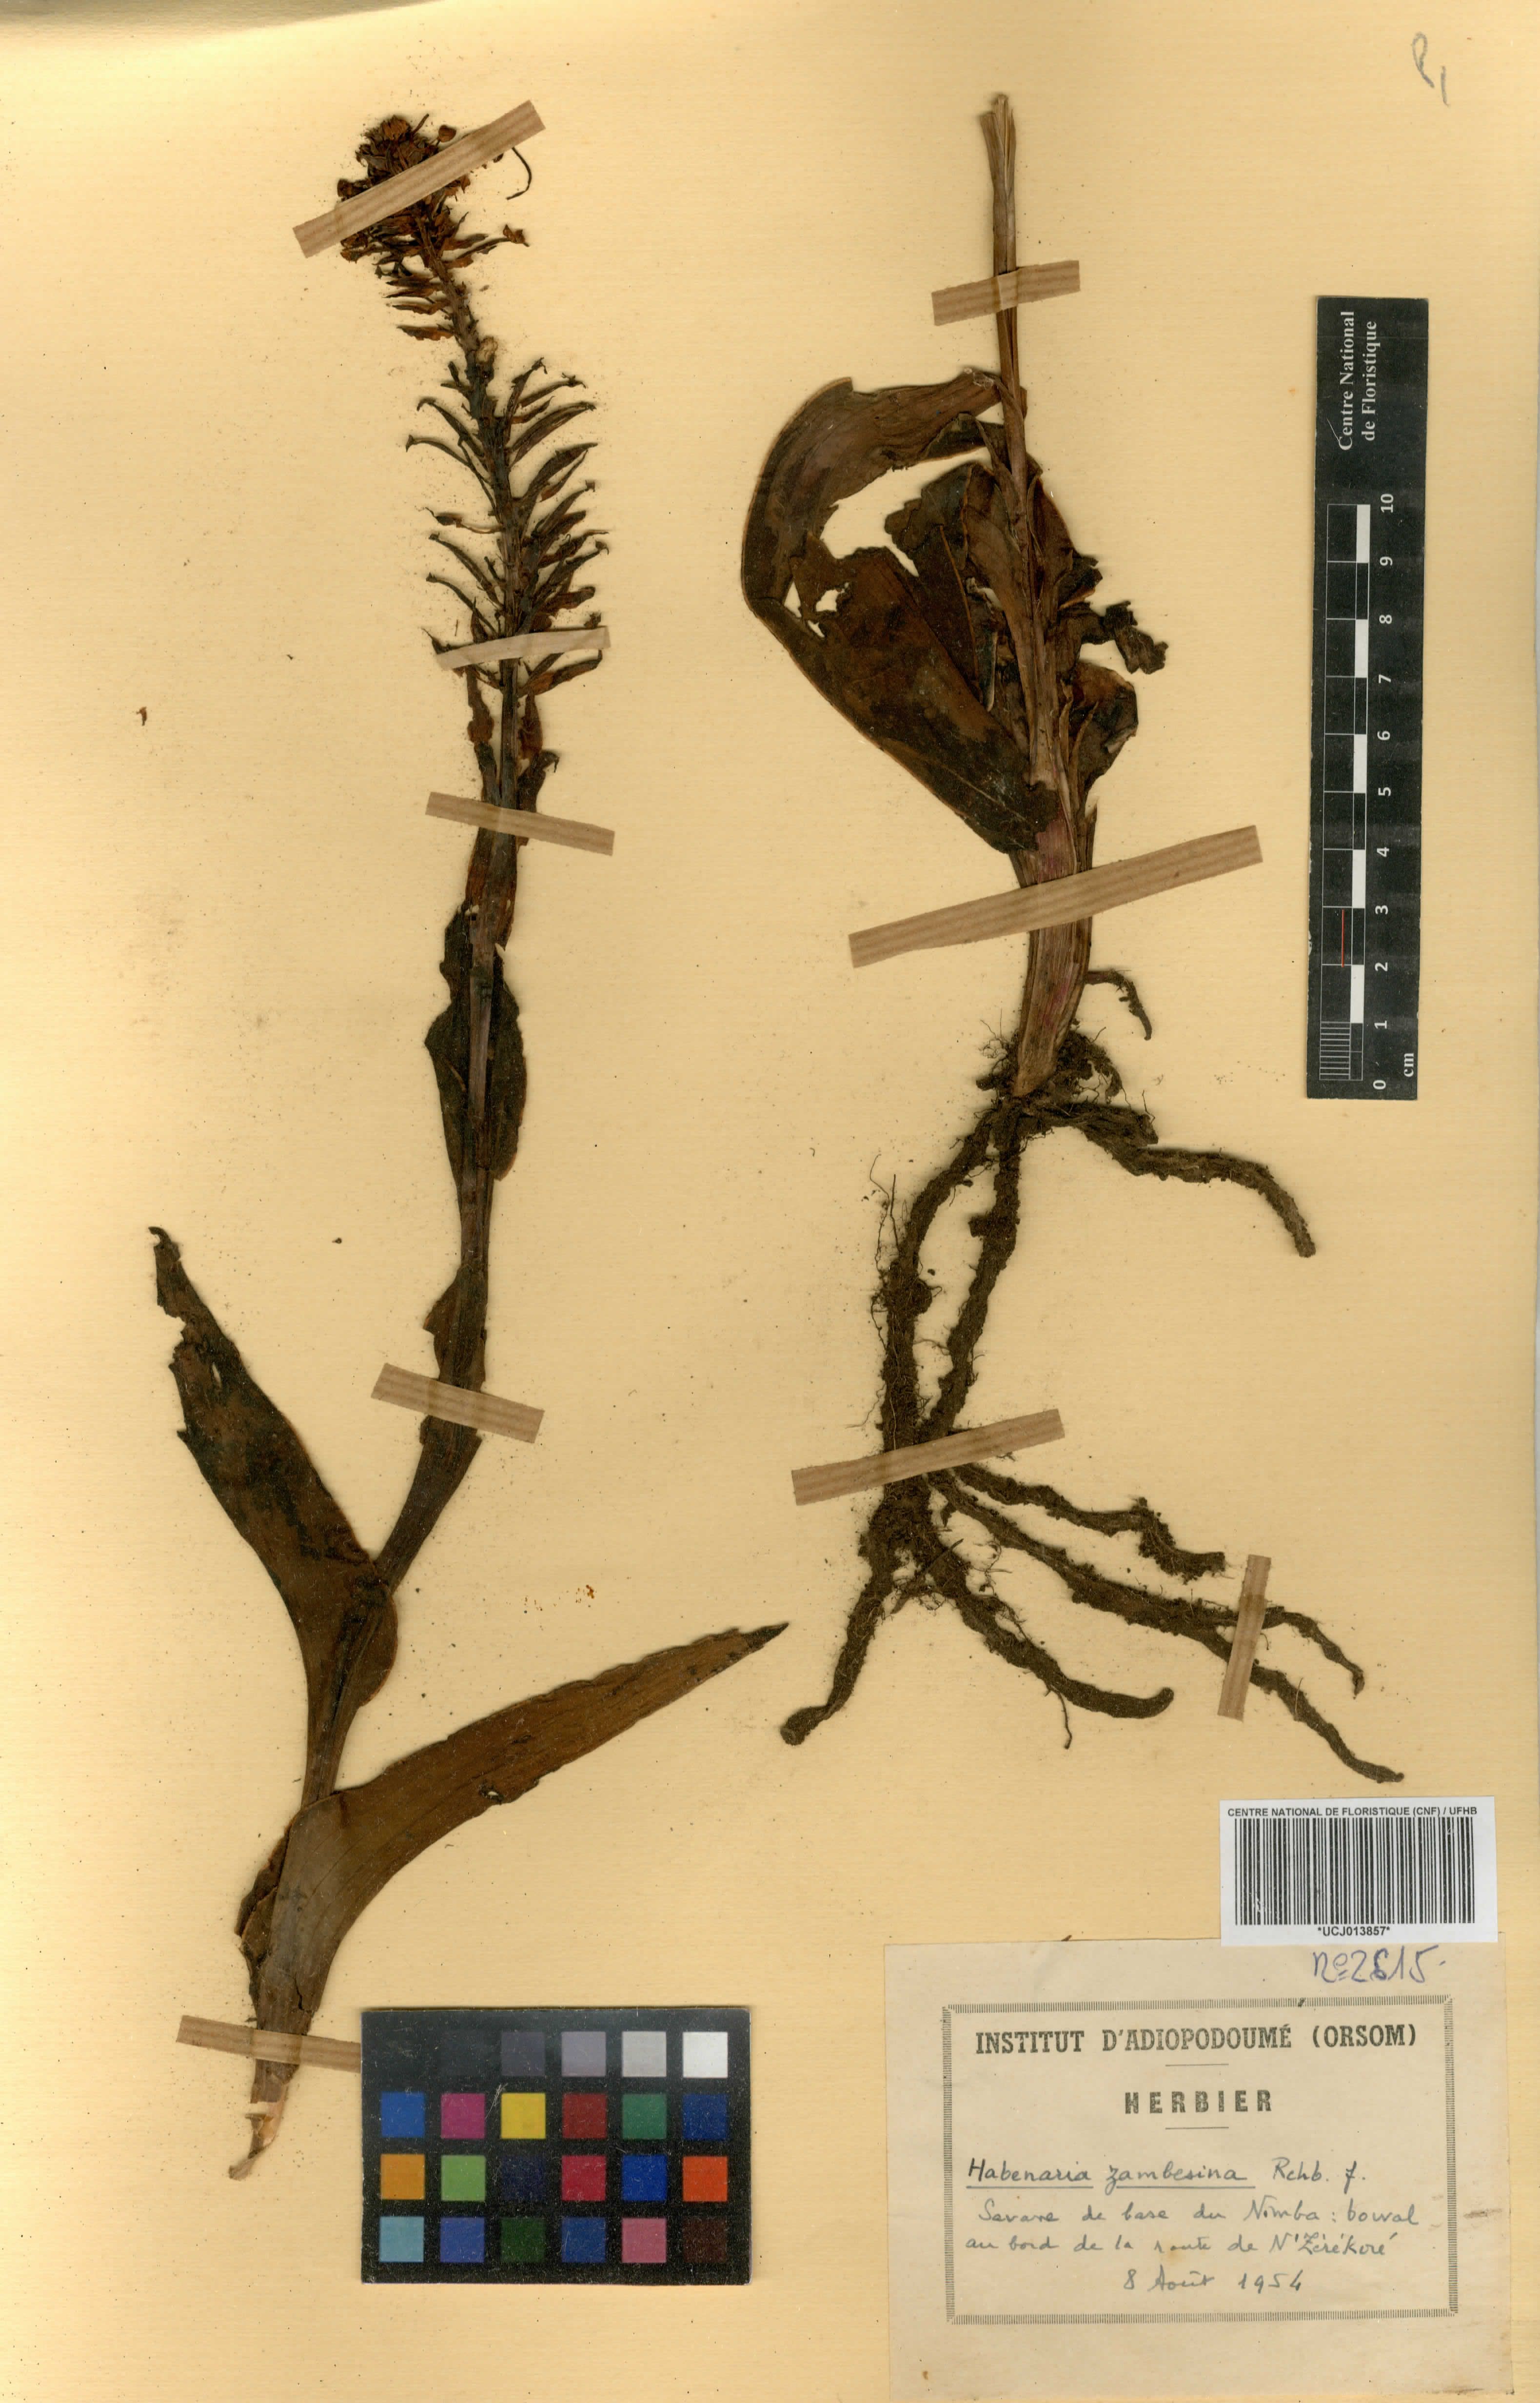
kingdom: Plantae
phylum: Tracheophyta
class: Liliopsida
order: Asparagales
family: Orchidaceae
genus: Habenaria
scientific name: Habenaria zambesina
